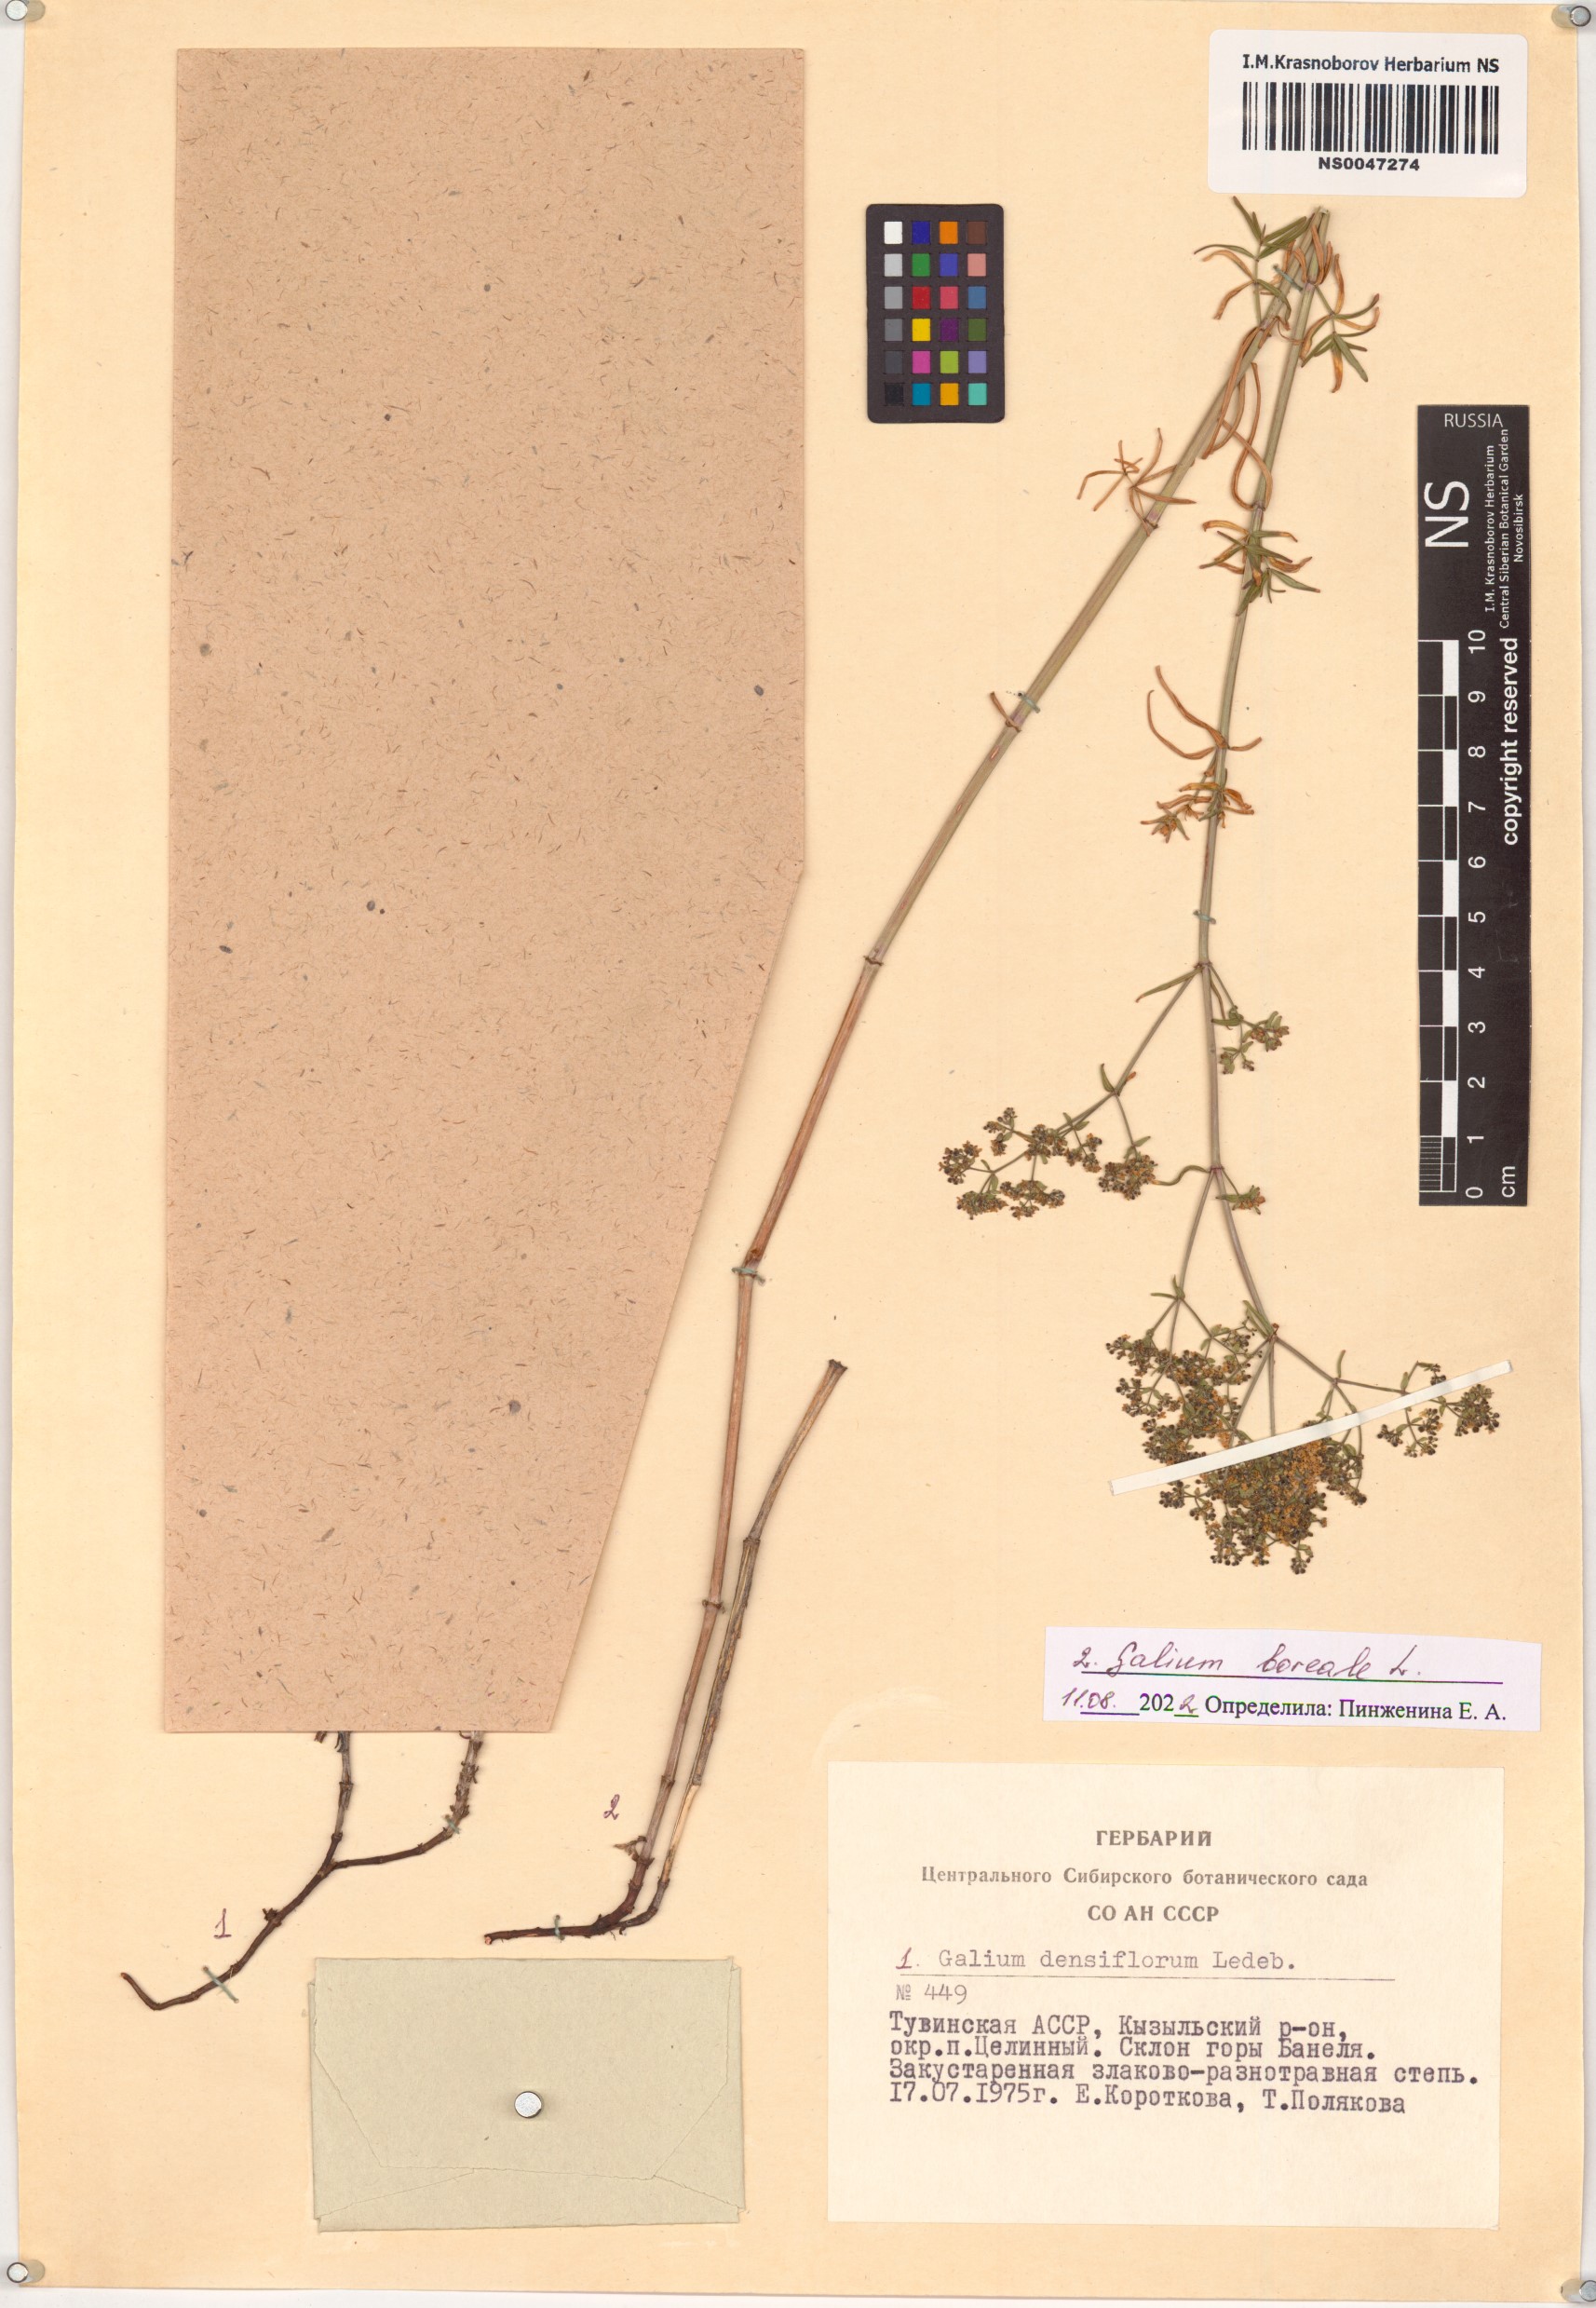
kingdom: Plantae
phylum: Tracheophyta
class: Magnoliopsida
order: Gentianales
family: Rubiaceae
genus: Galium
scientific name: Galium boreale
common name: Northern bedstraw
